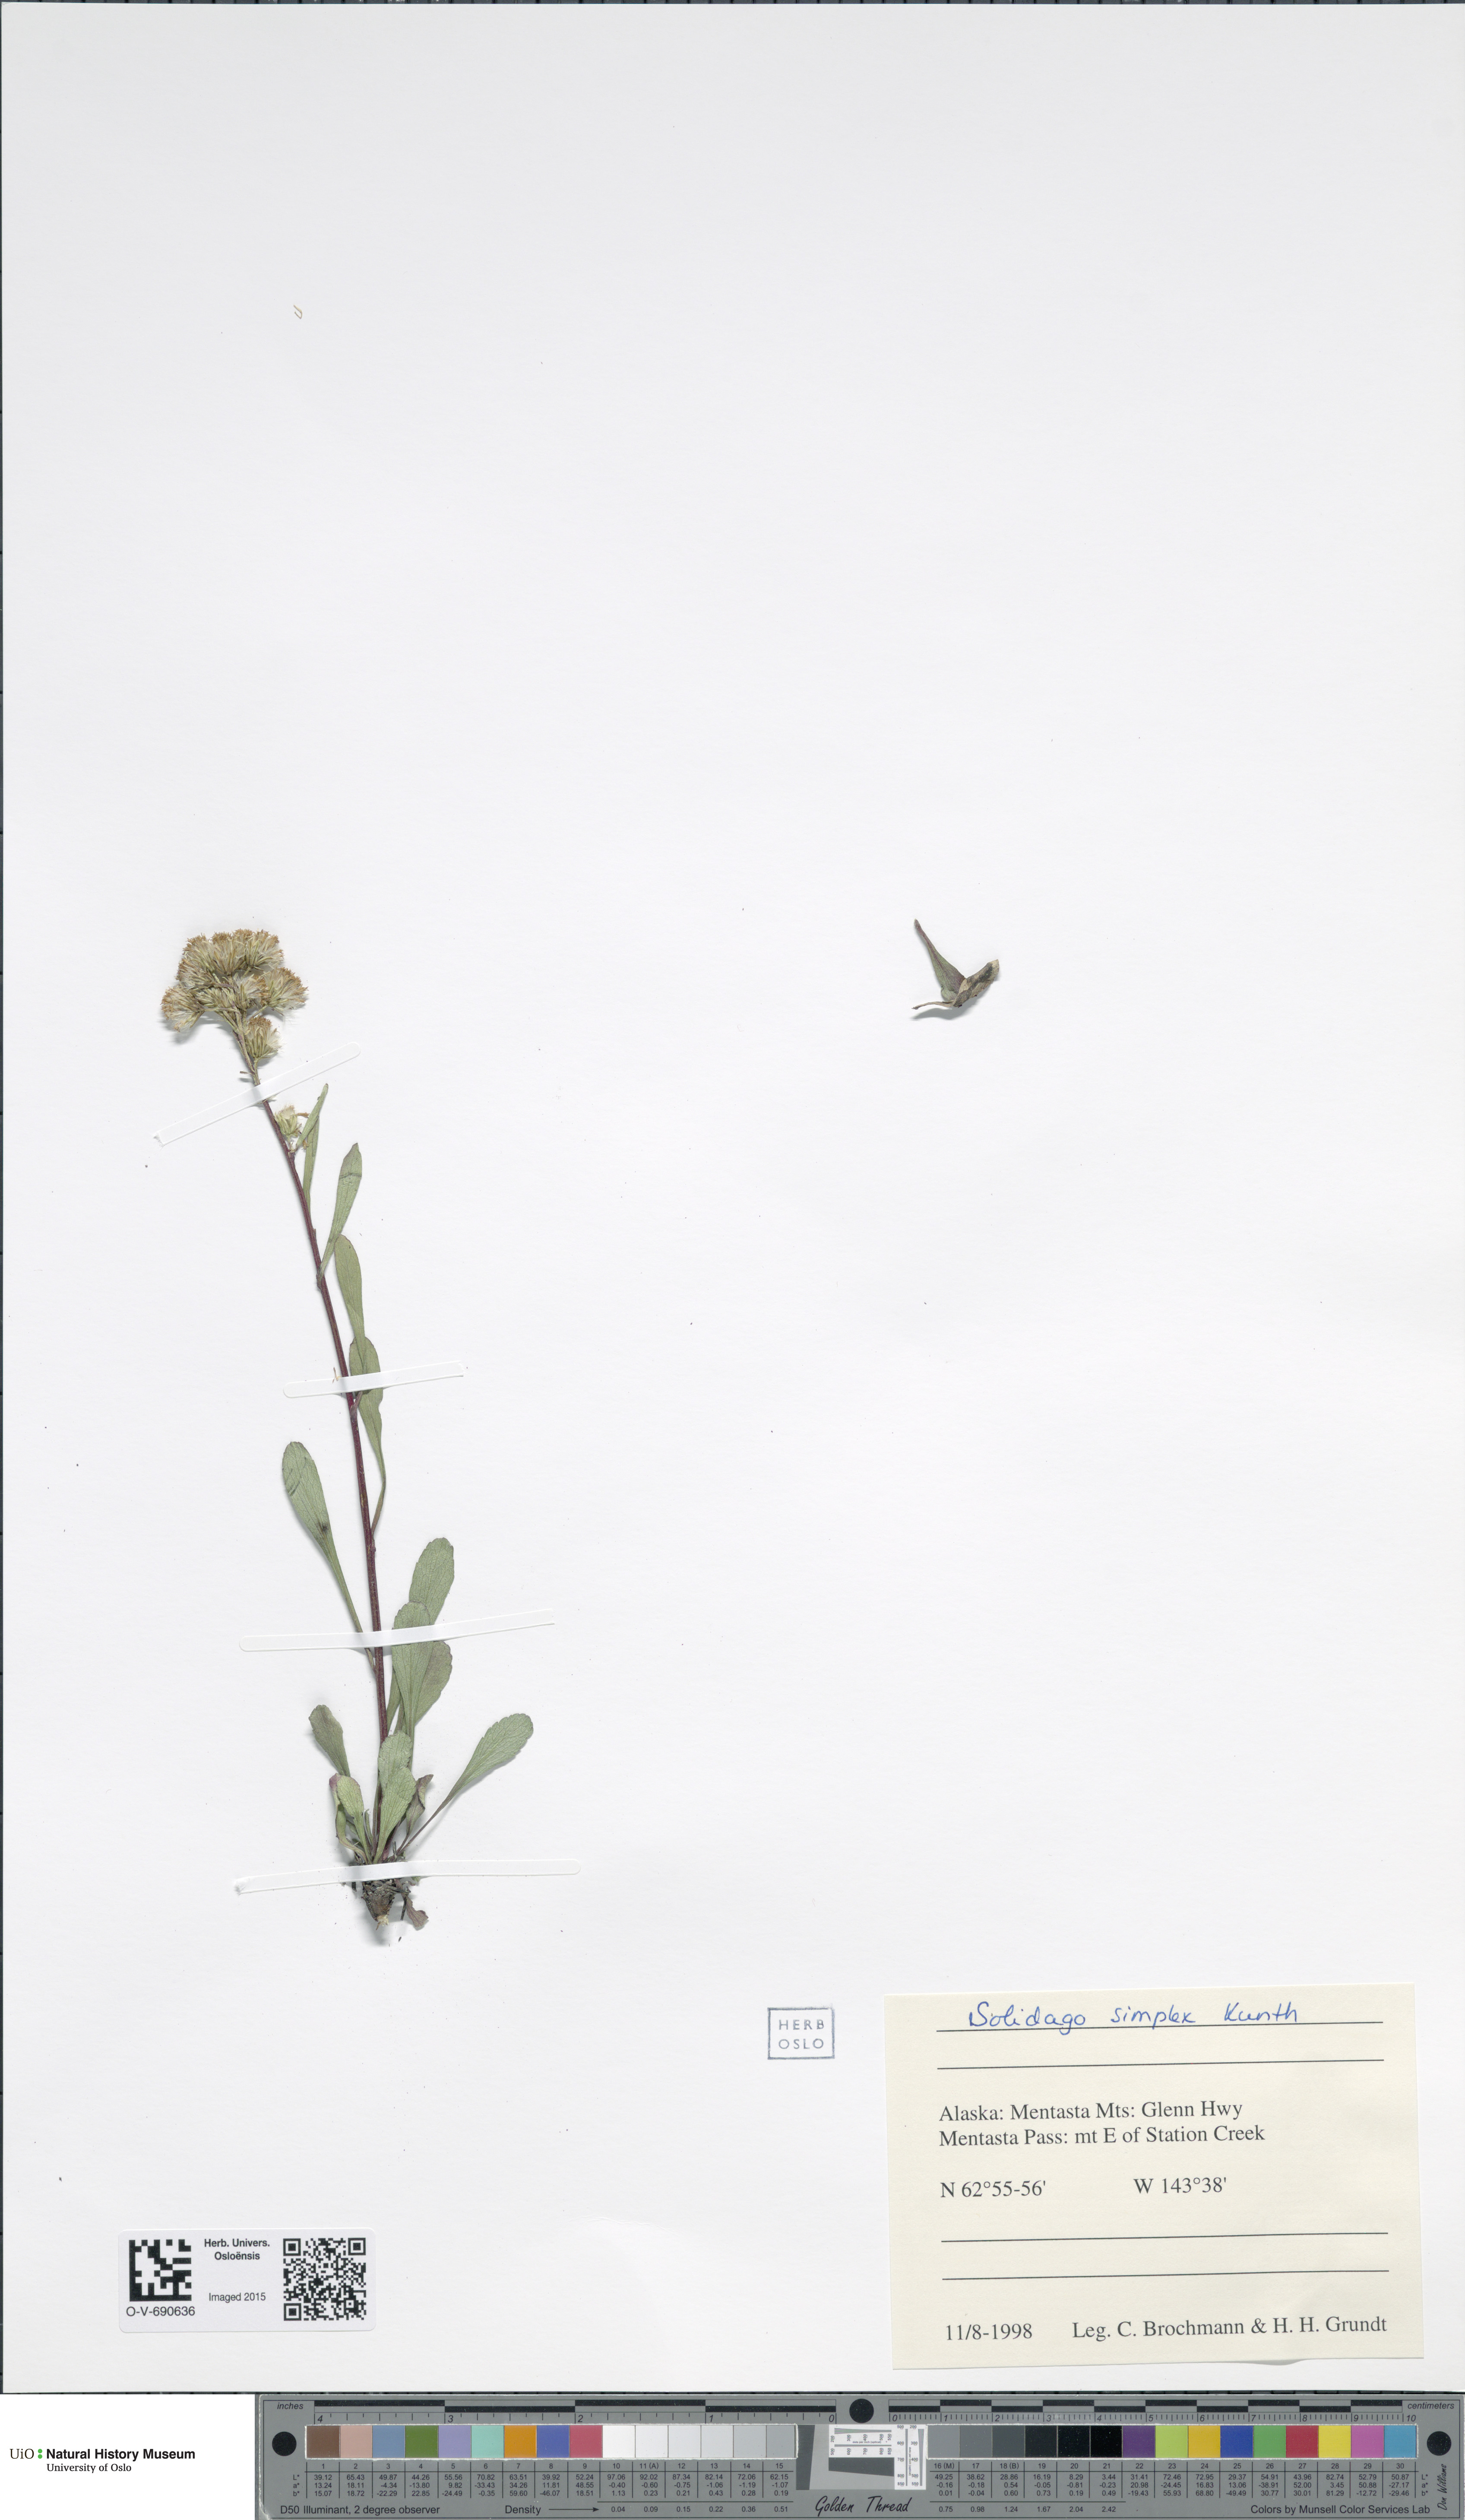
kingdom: Plantae
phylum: Tracheophyta
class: Magnoliopsida
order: Asterales
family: Asteraceae
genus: Solidago
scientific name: Solidago simplex
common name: Sticky goldenrod
